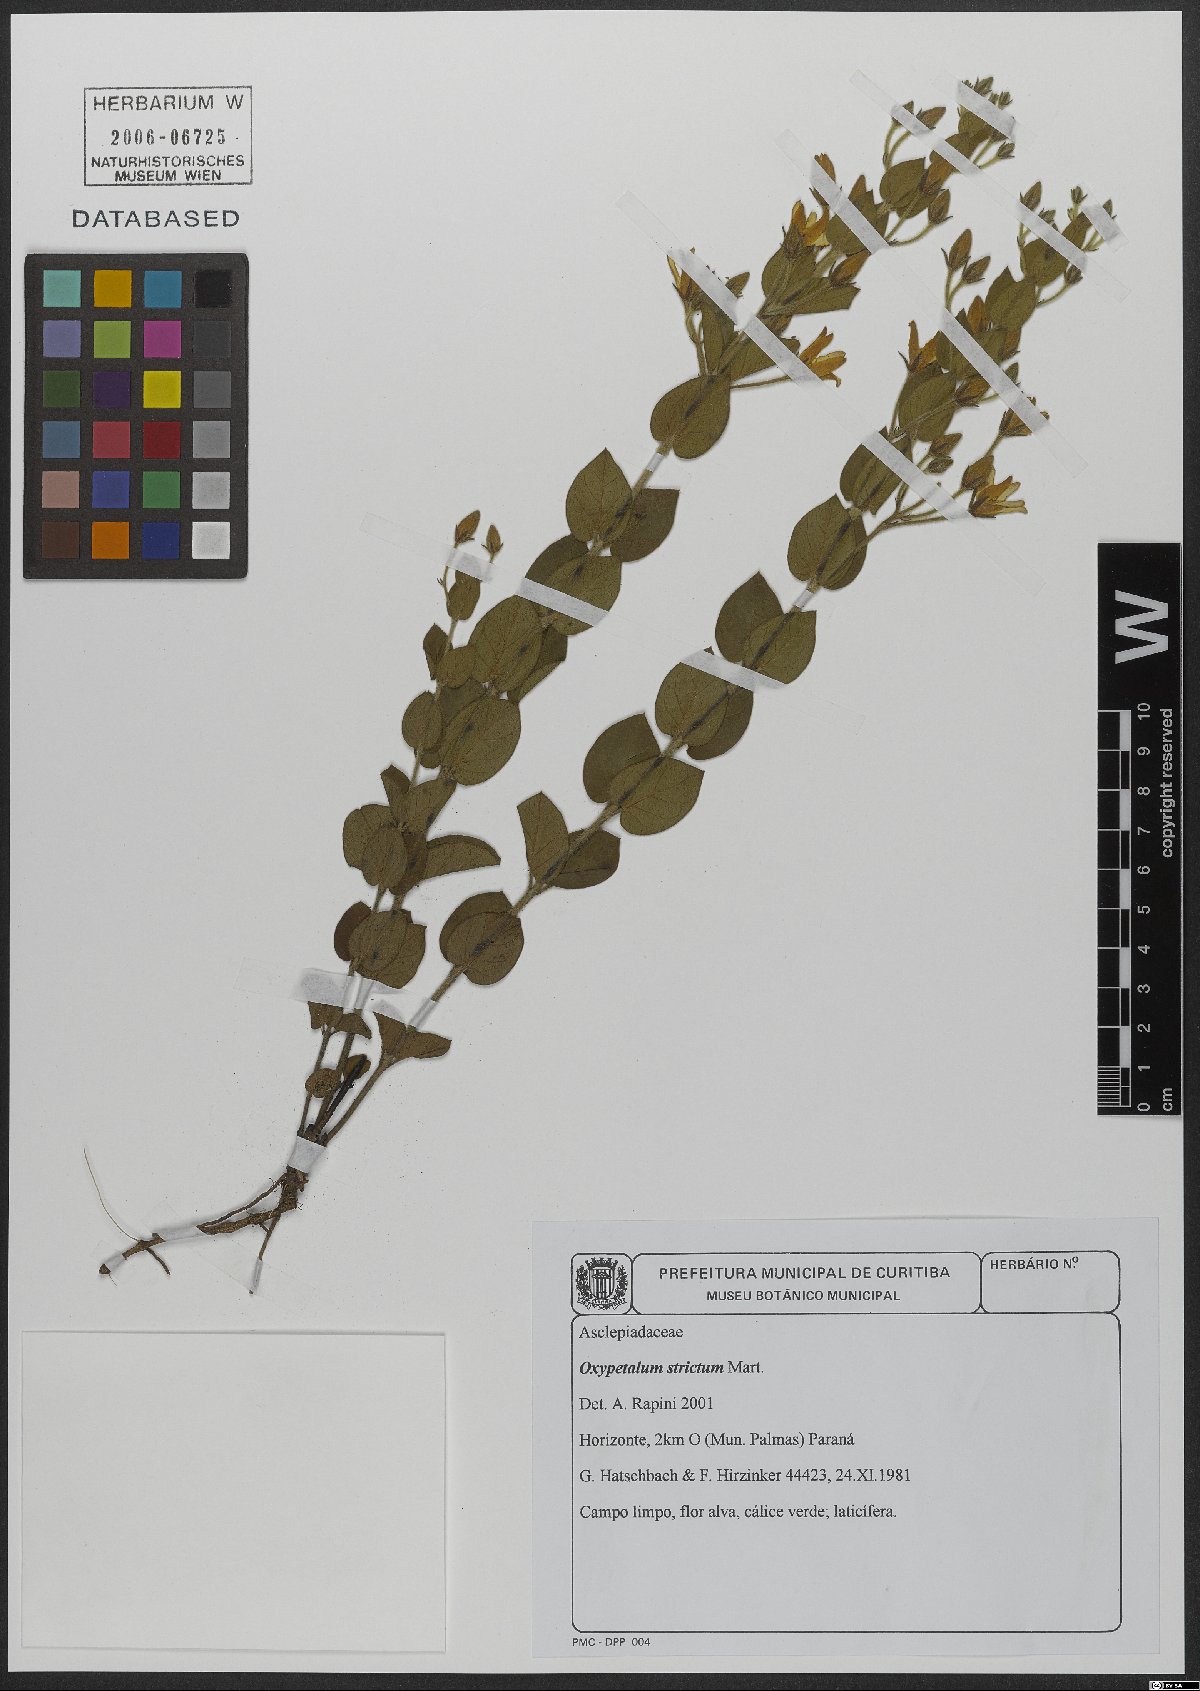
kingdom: Plantae
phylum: Tracheophyta
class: Magnoliopsida
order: Gentianales
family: Apocynaceae
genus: Oxypetalum
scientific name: Oxypetalum strictum
